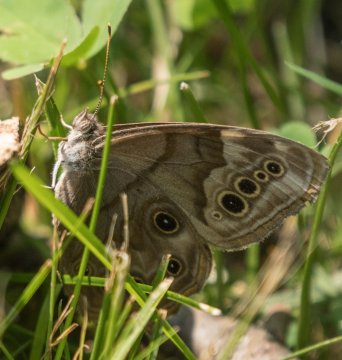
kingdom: Animalia
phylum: Arthropoda
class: Insecta
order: Lepidoptera
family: Nymphalidae
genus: Lethe
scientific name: Lethe anthedon
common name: Northern Pearly-Eye
